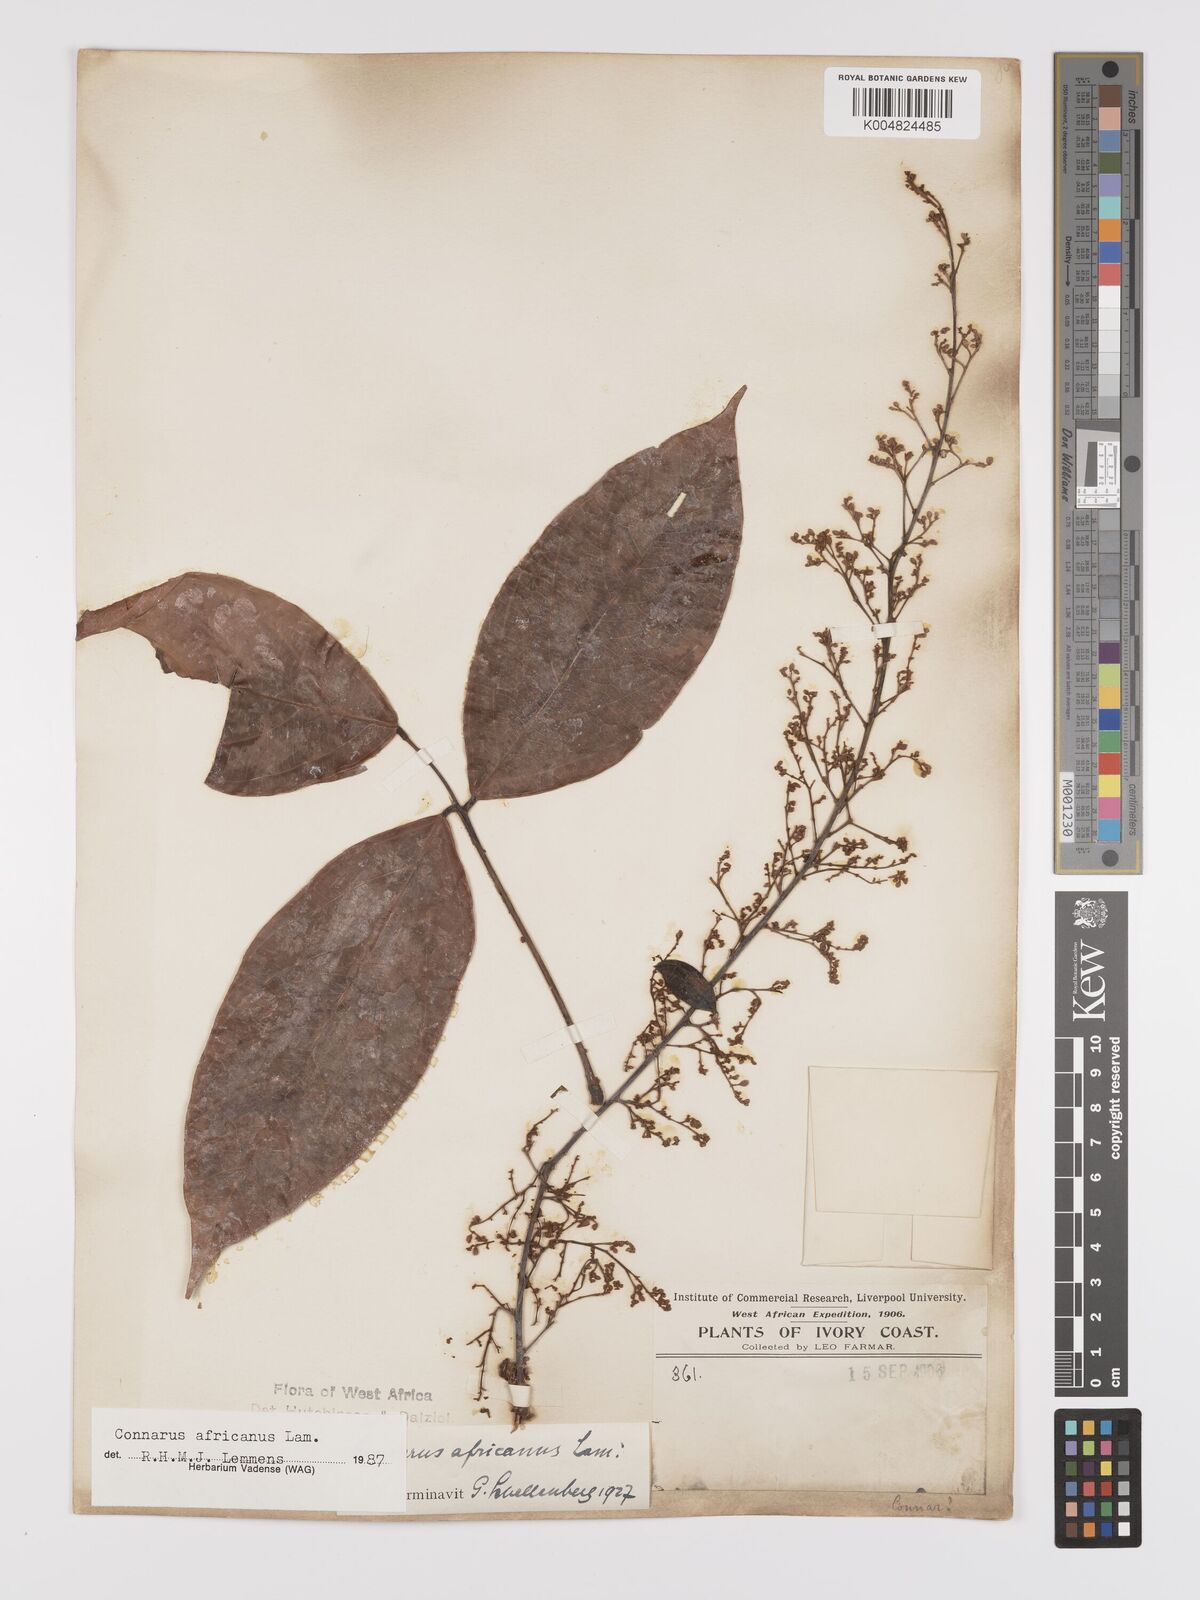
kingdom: Plantae
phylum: Tracheophyta
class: Magnoliopsida
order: Oxalidales
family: Connaraceae
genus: Connarus
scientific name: Connarus africanus
